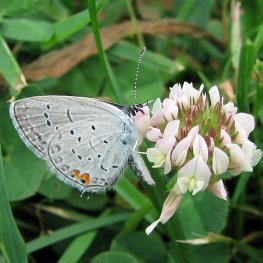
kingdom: Animalia
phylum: Arthropoda
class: Insecta
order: Lepidoptera
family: Lycaenidae
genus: Elkalyce
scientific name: Elkalyce comyntas
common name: Eastern Tailed-Blue
